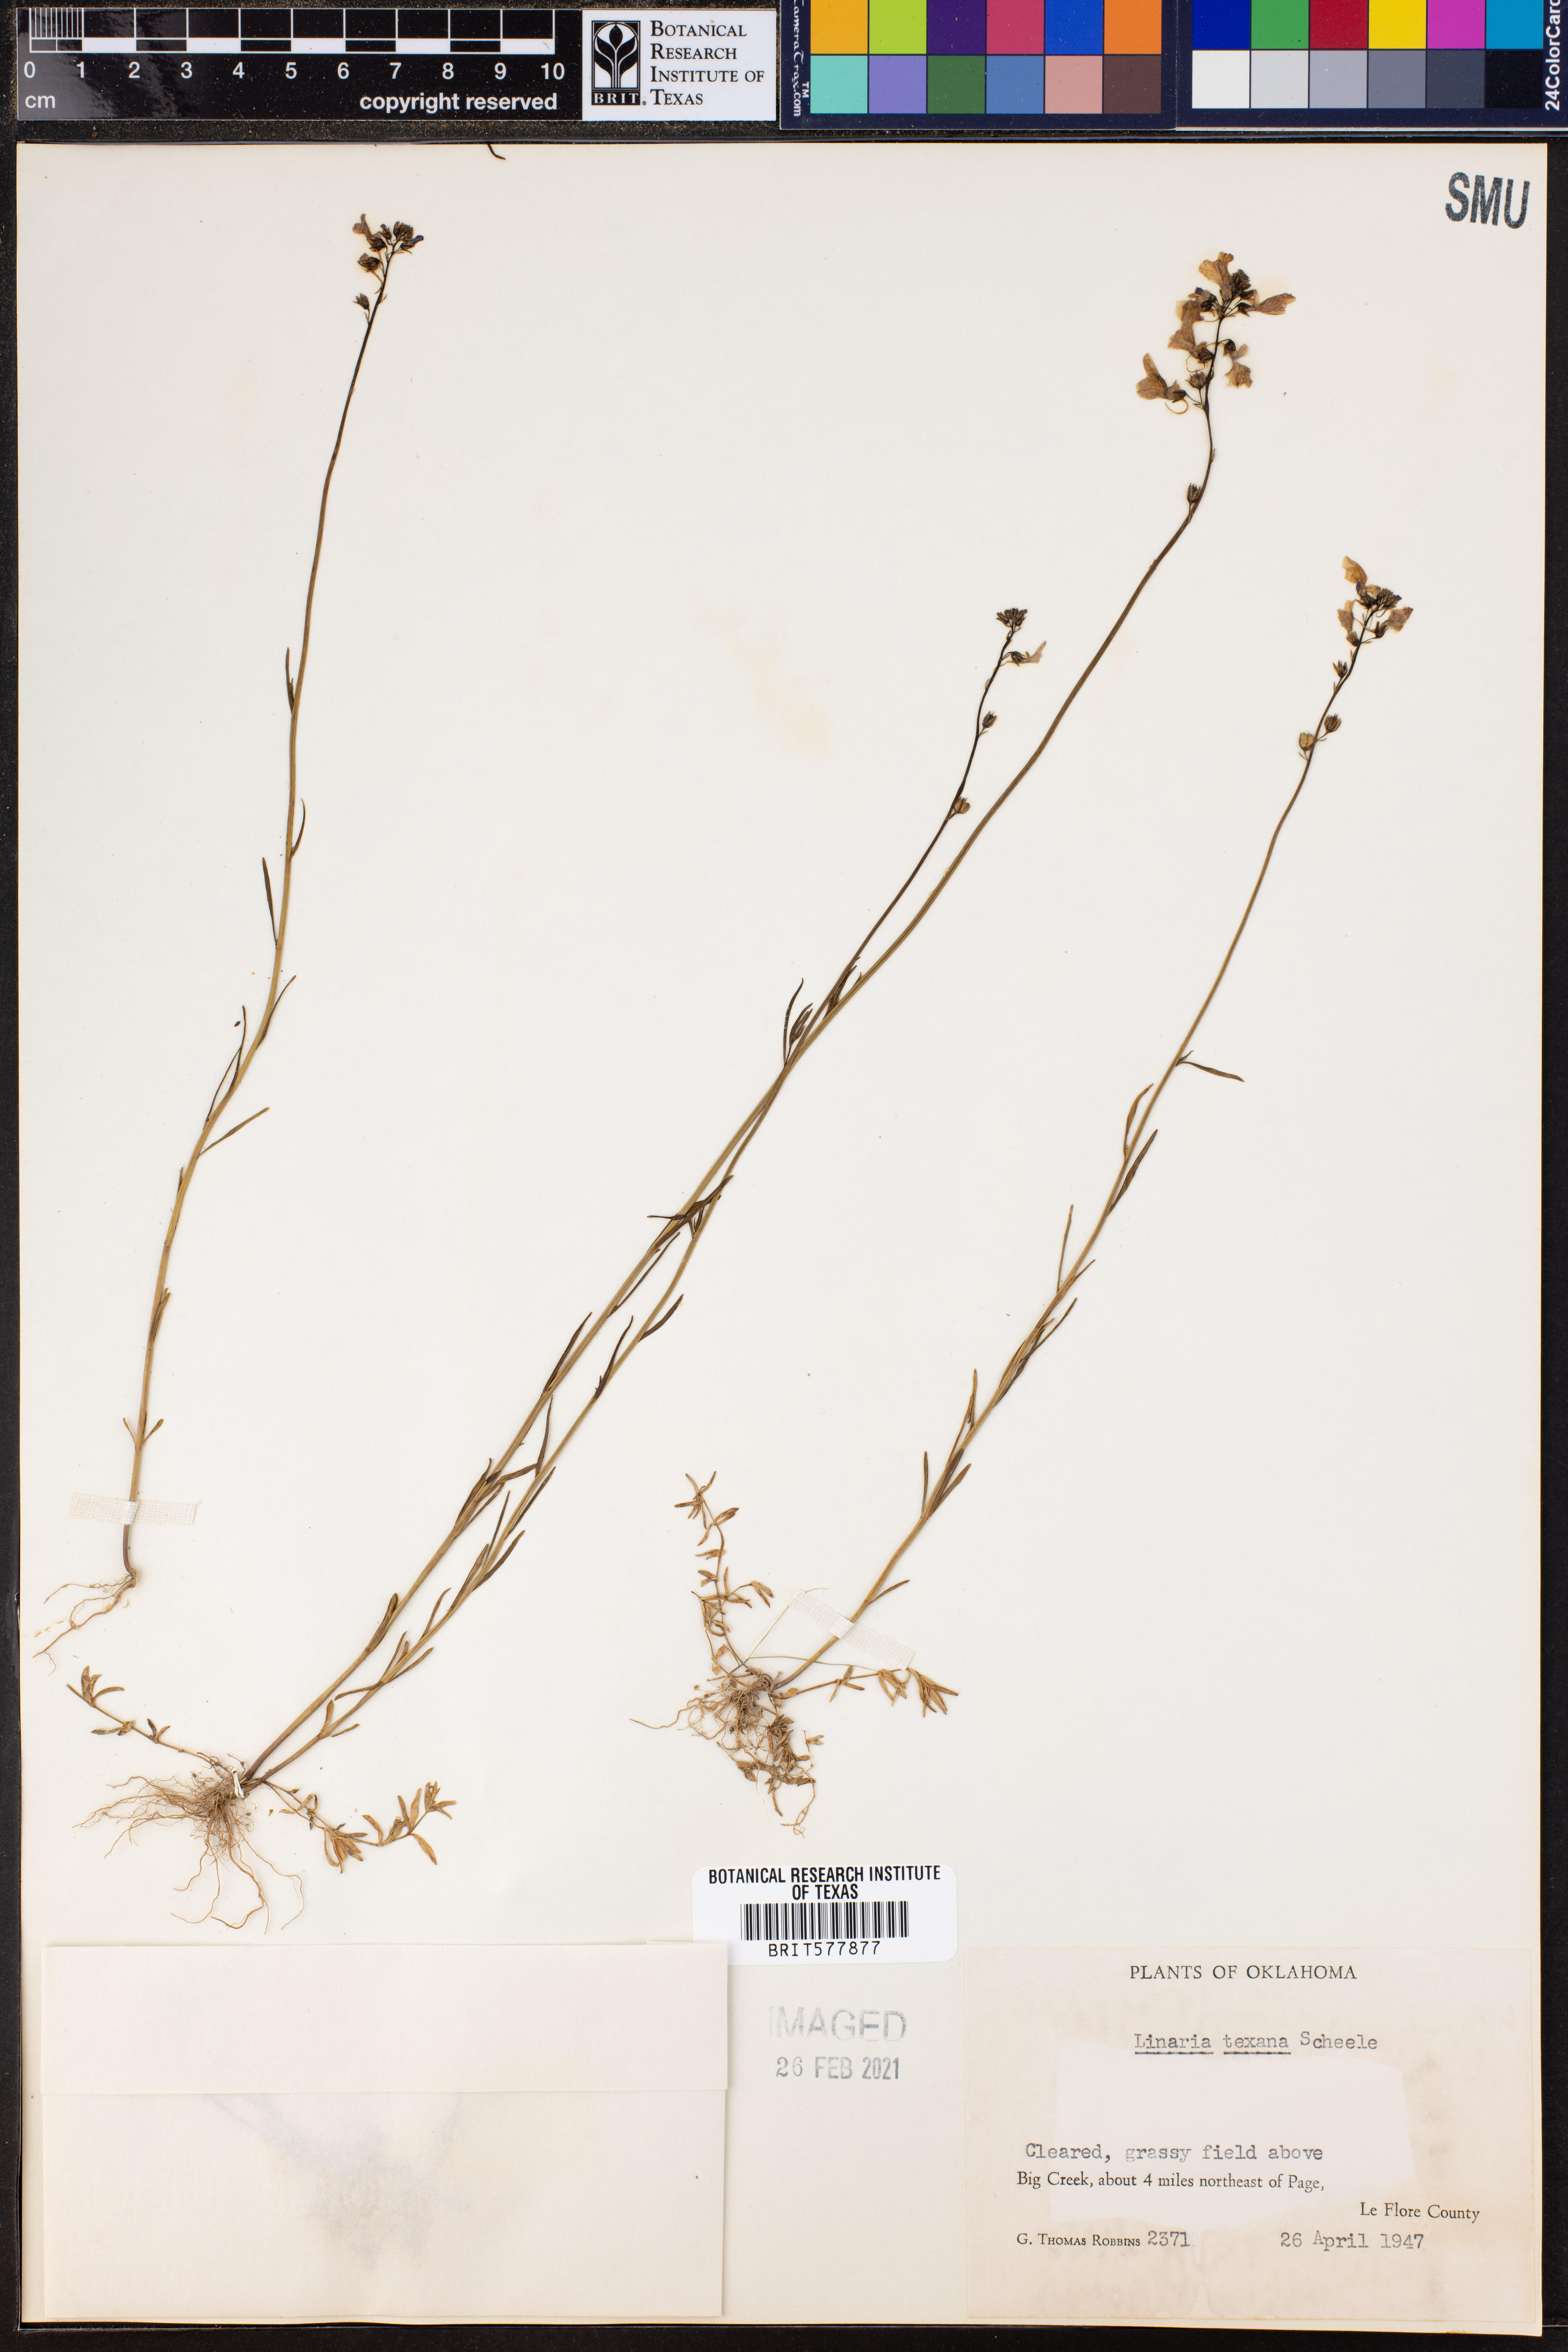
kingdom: Plantae
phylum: Tracheophyta
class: Magnoliopsida
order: Lamiales
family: Plantaginaceae
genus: Nuttallanthus
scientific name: Nuttallanthus texanus
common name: Texas toadflax
